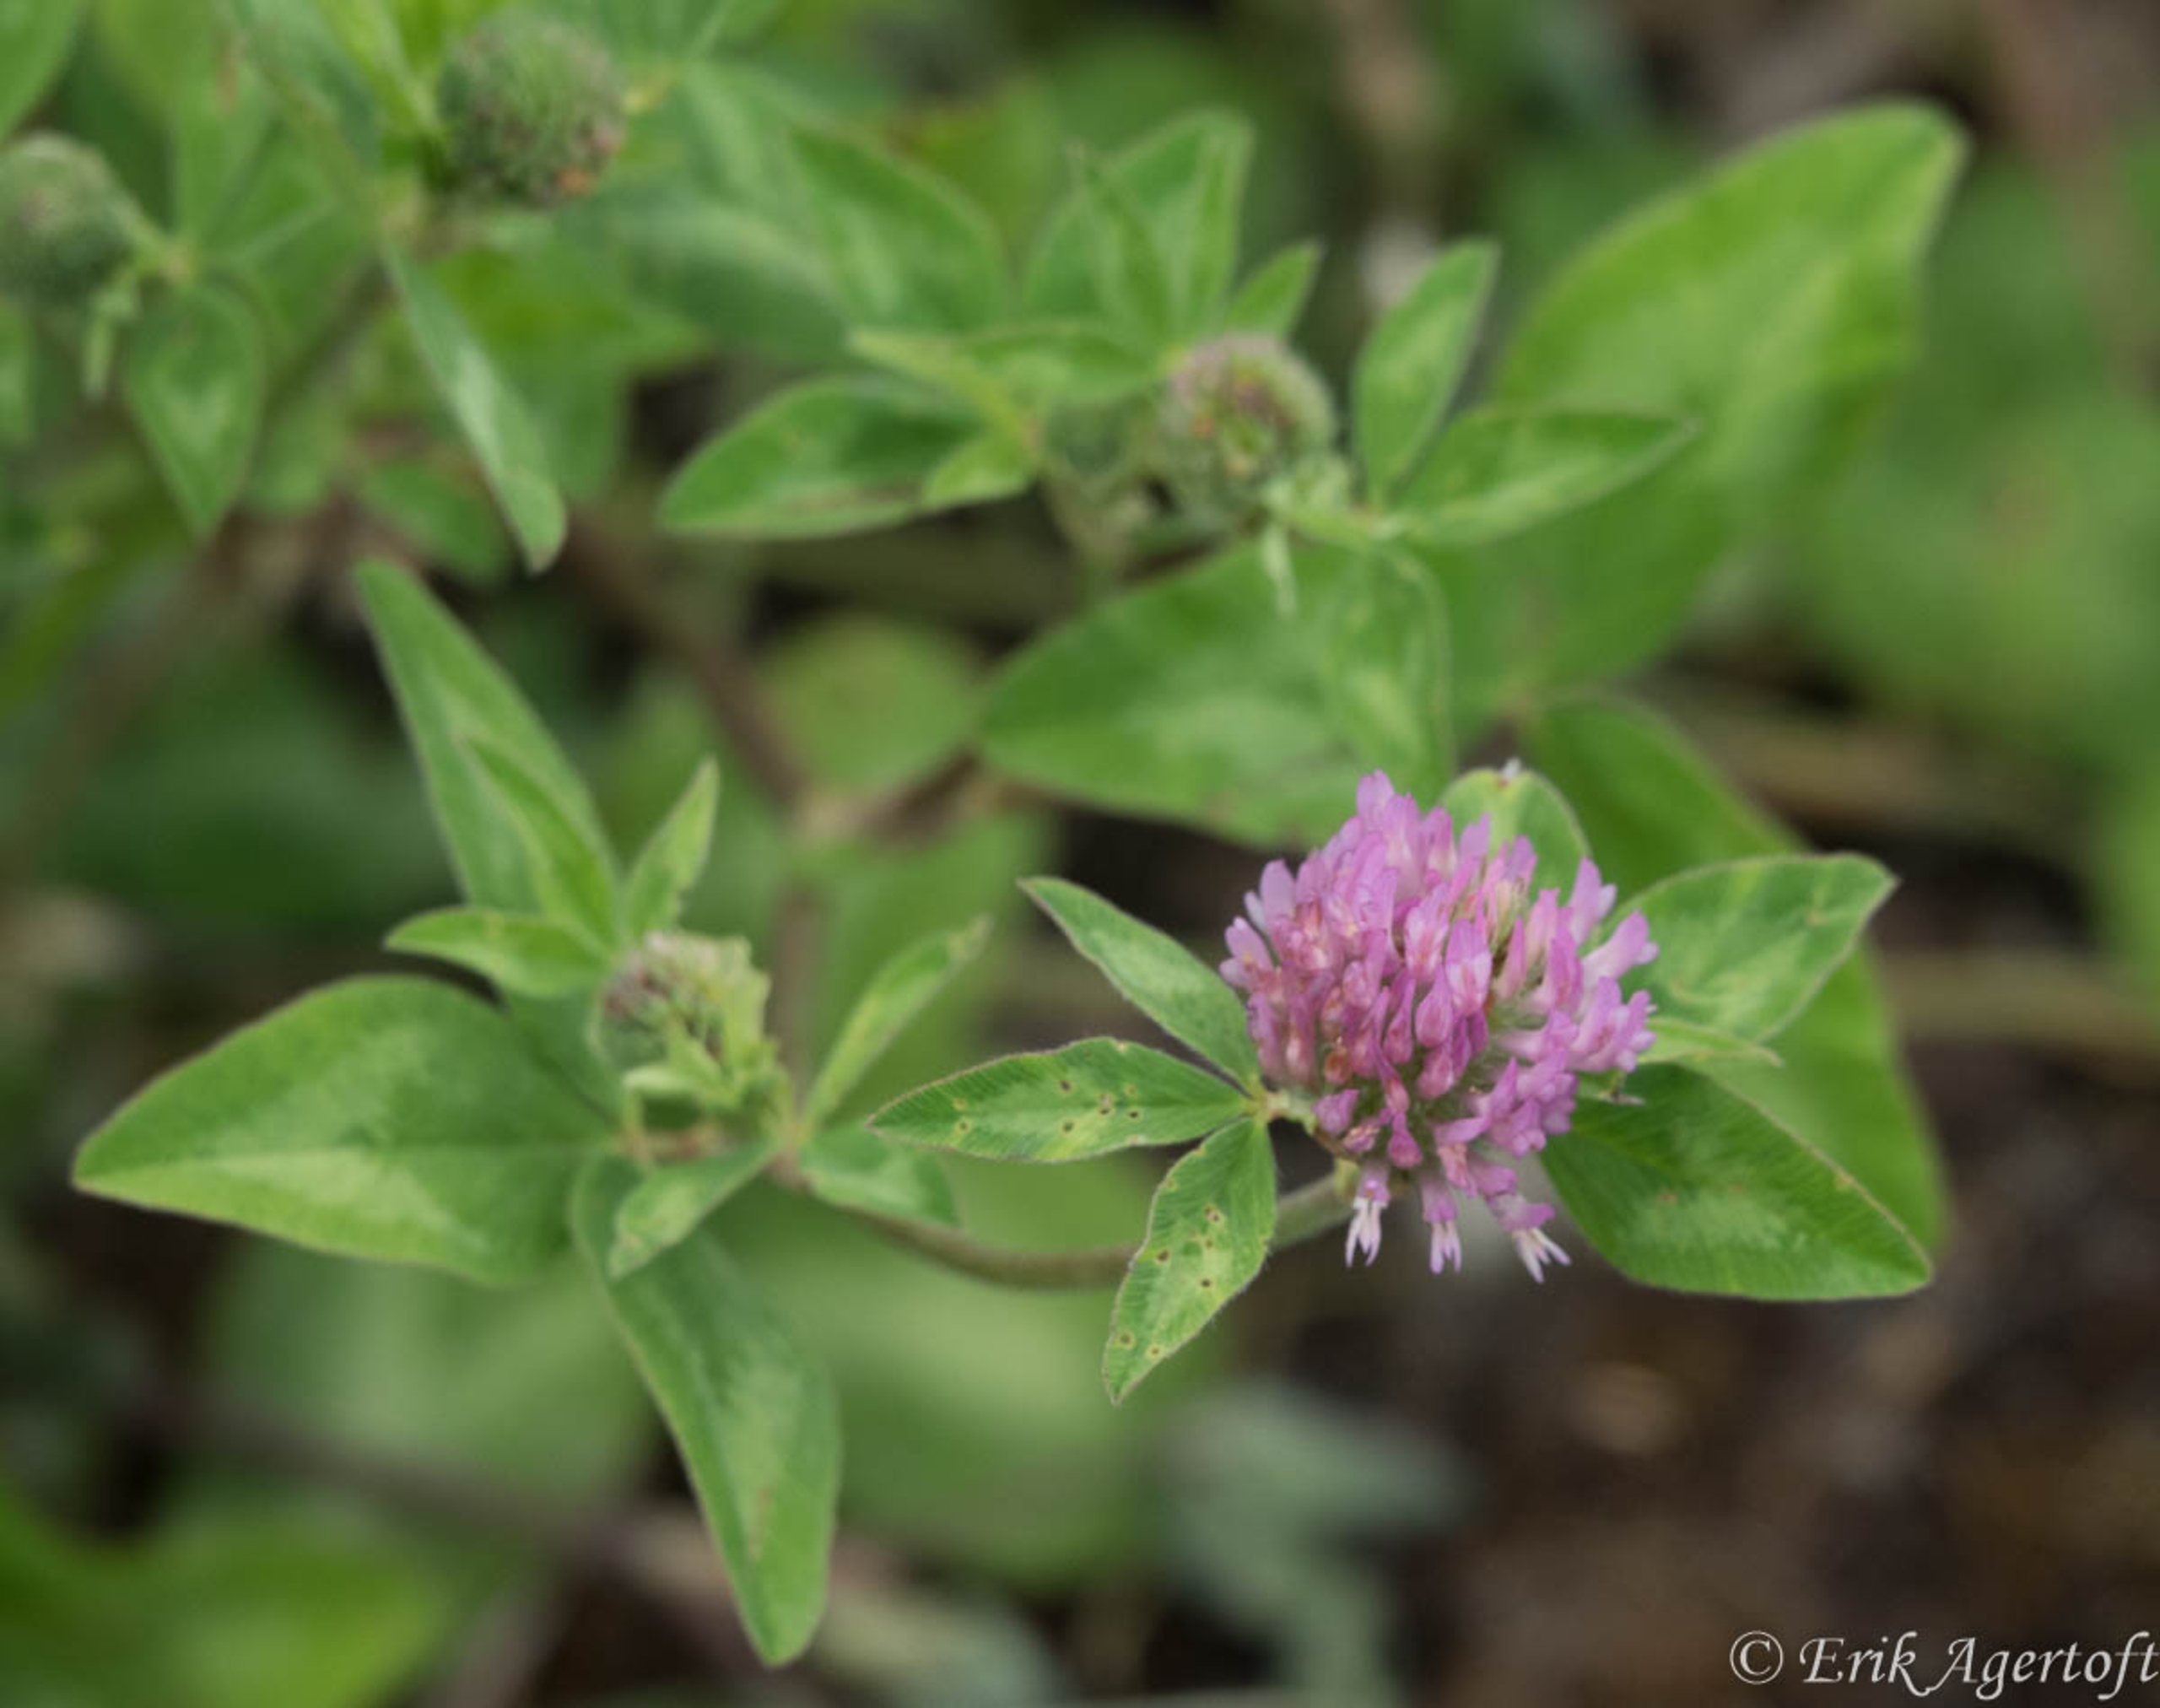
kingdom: Plantae
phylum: Tracheophyta
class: Magnoliopsida
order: Fabales
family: Fabaceae
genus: Trifolium
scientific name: Trifolium pratense
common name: Rød-kløver
